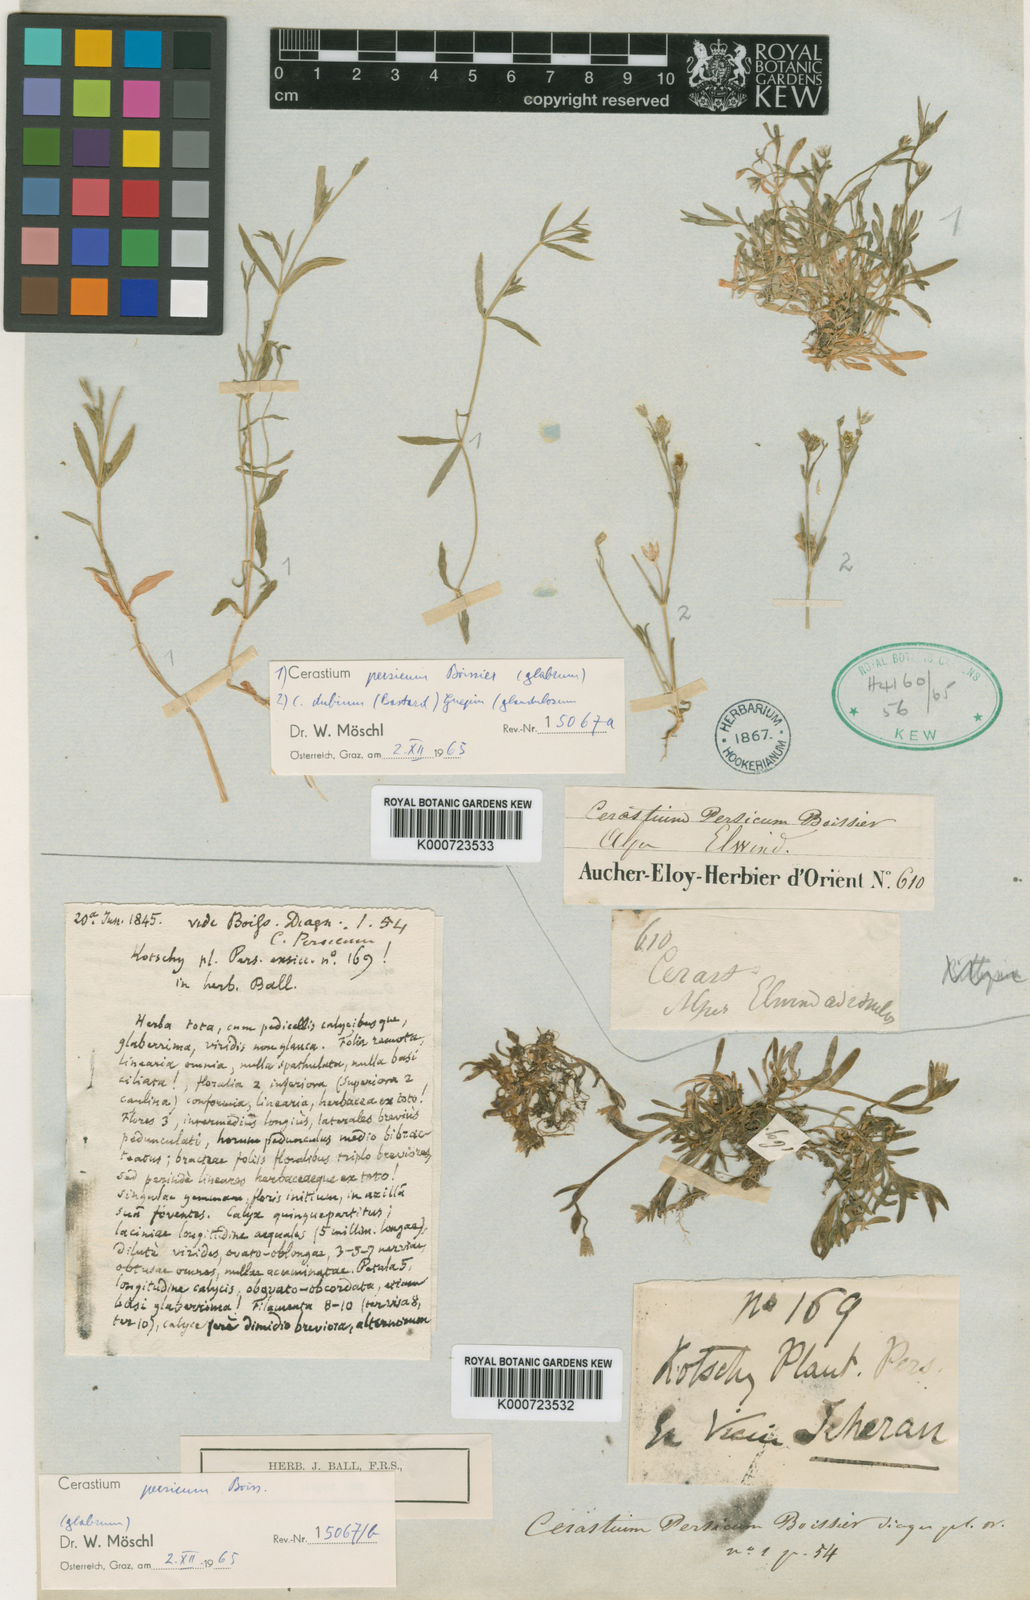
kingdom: Plantae
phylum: Tracheophyta
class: Magnoliopsida
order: Caryophyllales
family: Caryophyllaceae
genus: Dichodon
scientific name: Dichodon persicum
